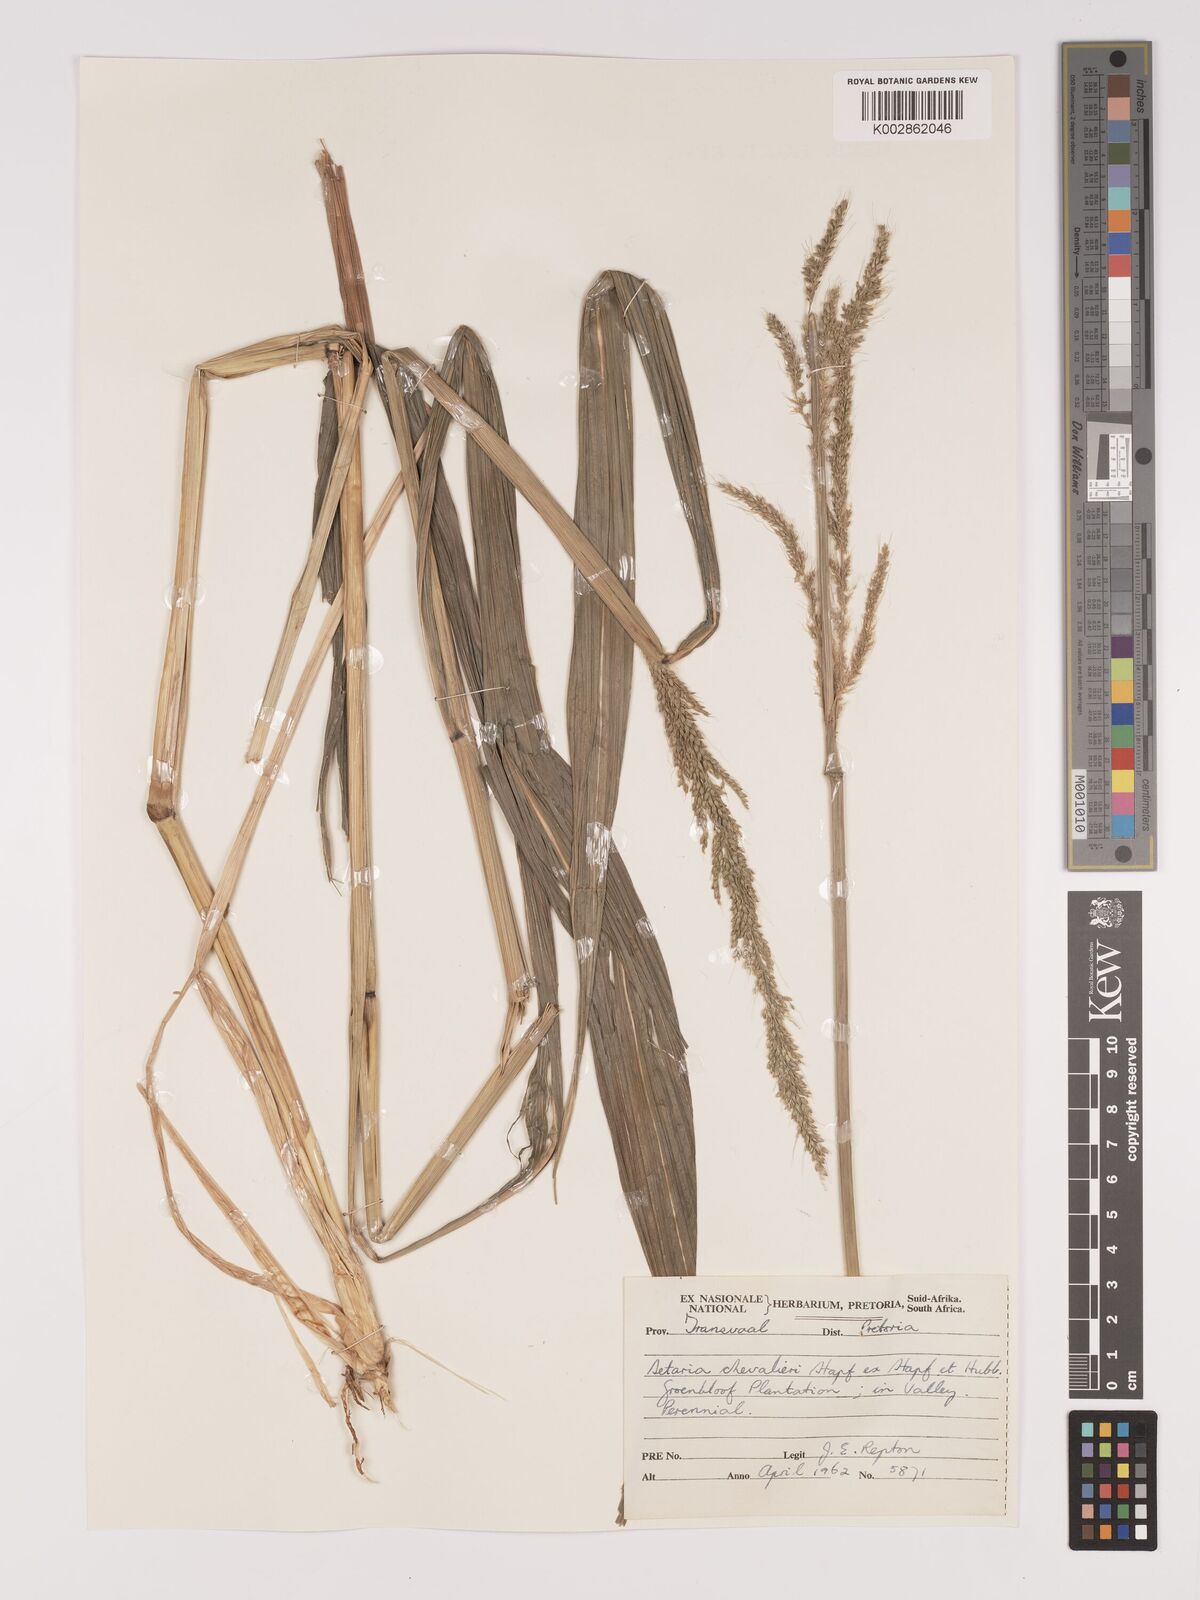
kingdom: Plantae
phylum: Tracheophyta
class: Liliopsida
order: Poales
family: Poaceae
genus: Setaria
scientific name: Setaria megaphylla
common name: Bigleaf bristlegrass
